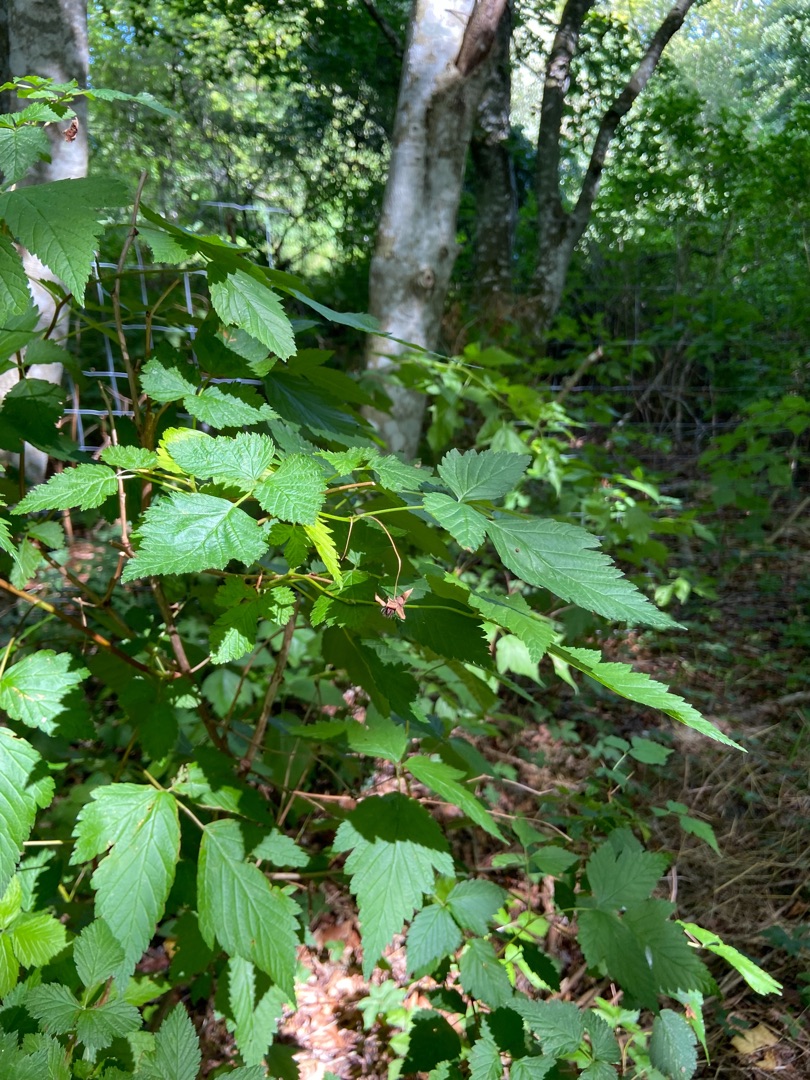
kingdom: Plantae
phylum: Tracheophyta
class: Magnoliopsida
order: Rosales
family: Rosaceae
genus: Rubus
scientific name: Rubus spectabilis
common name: Laksebær
